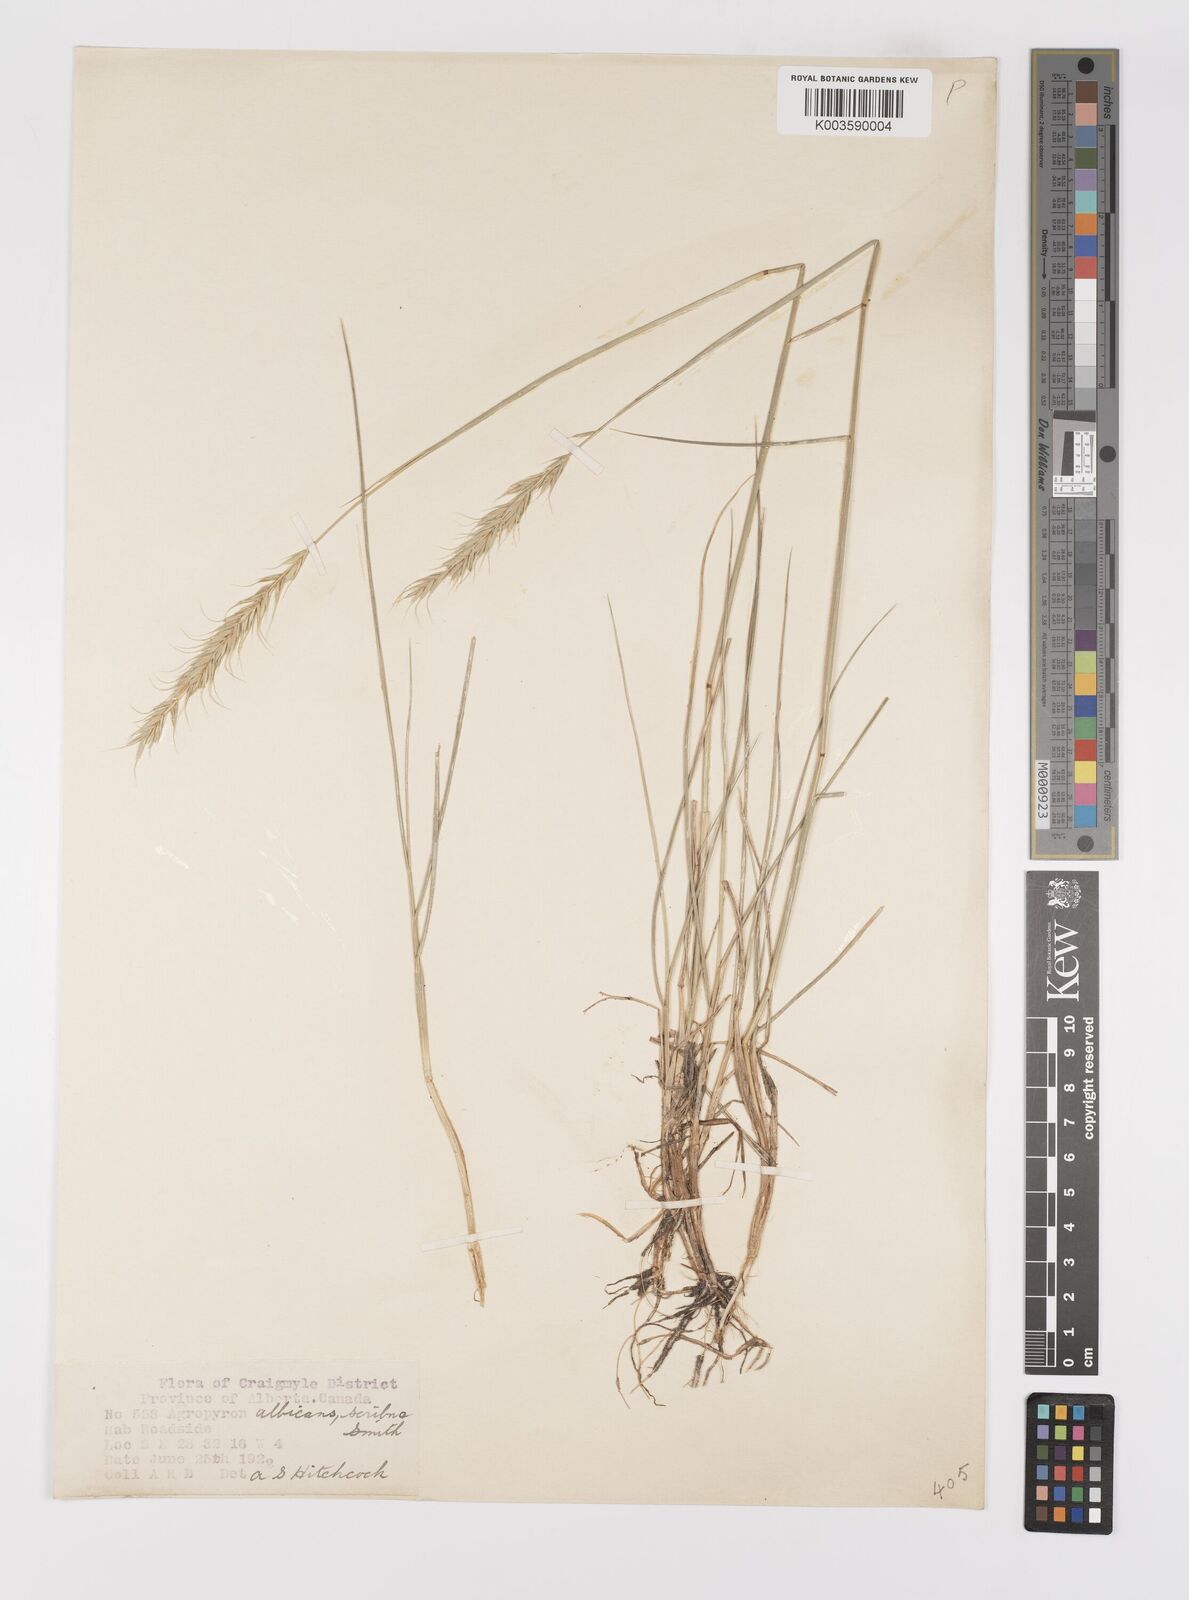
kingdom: Plantae
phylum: Tracheophyta
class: Liliopsida
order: Poales
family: Poaceae
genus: Elymus
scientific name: Elymus albicans
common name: Montana wheatgrass
